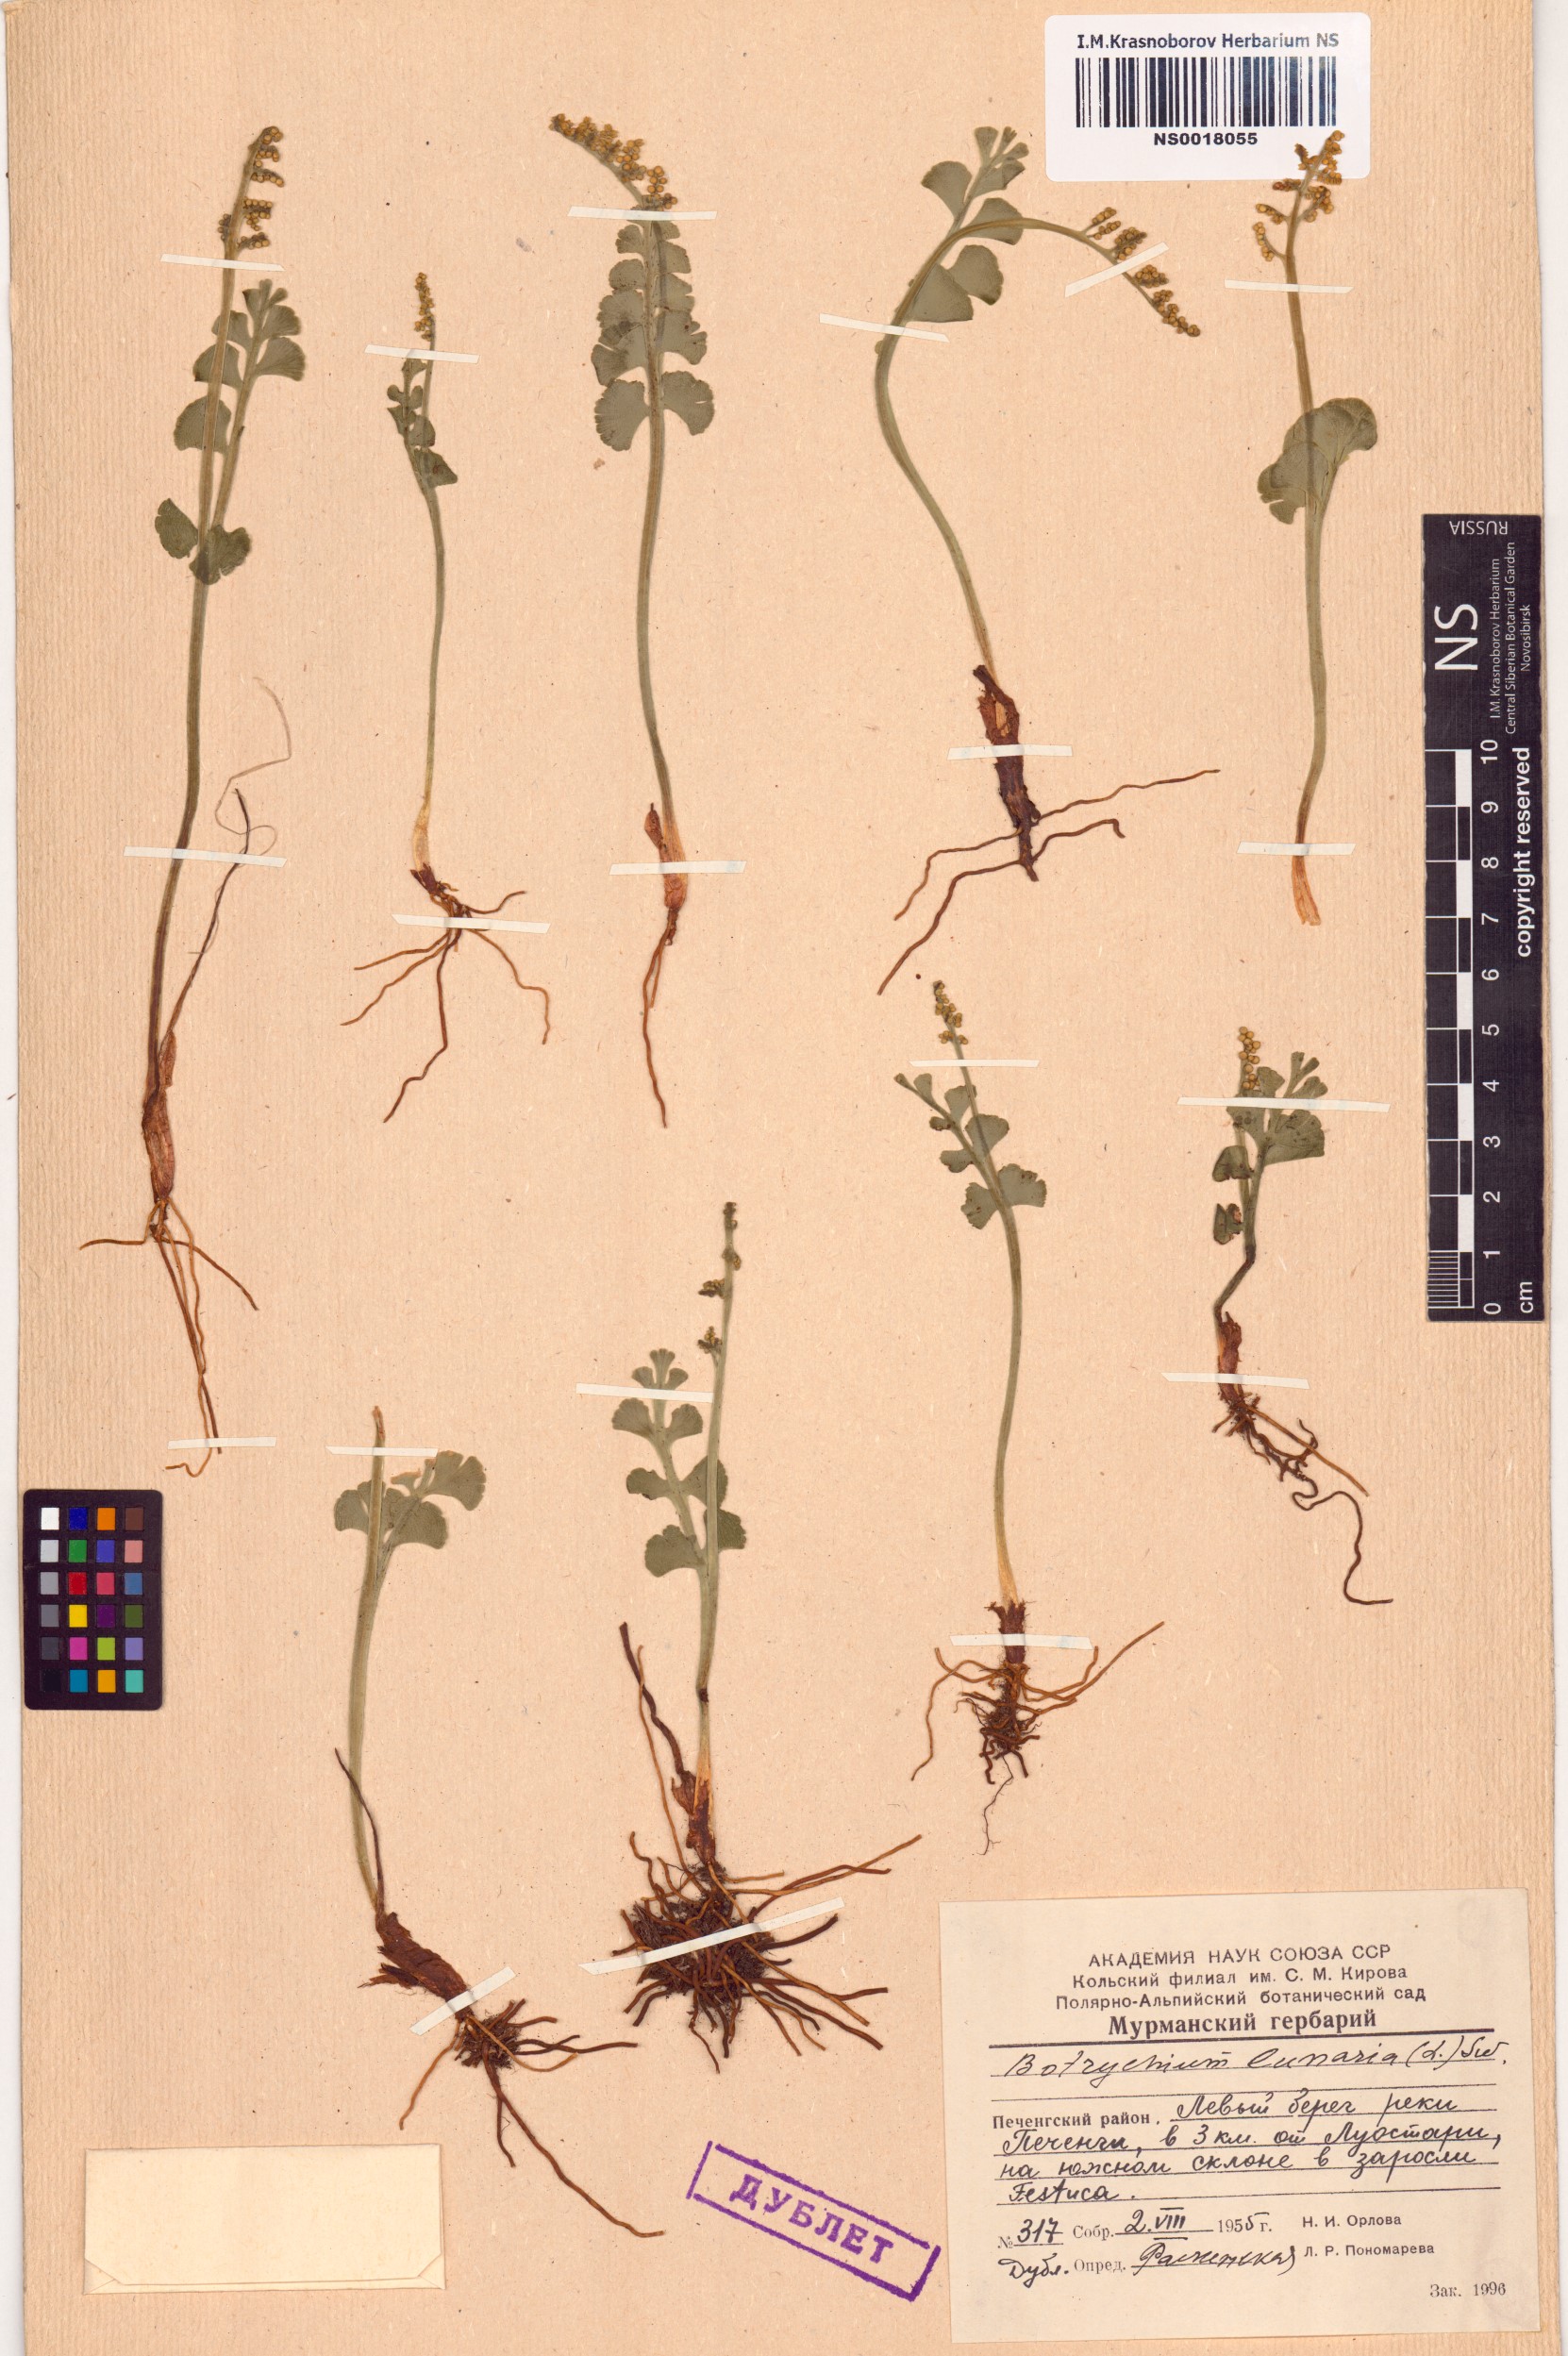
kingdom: Plantae
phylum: Tracheophyta
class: Polypodiopsida
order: Ophioglossales
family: Ophioglossaceae
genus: Botrychium
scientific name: Botrychium lunaria
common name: Moonwort
